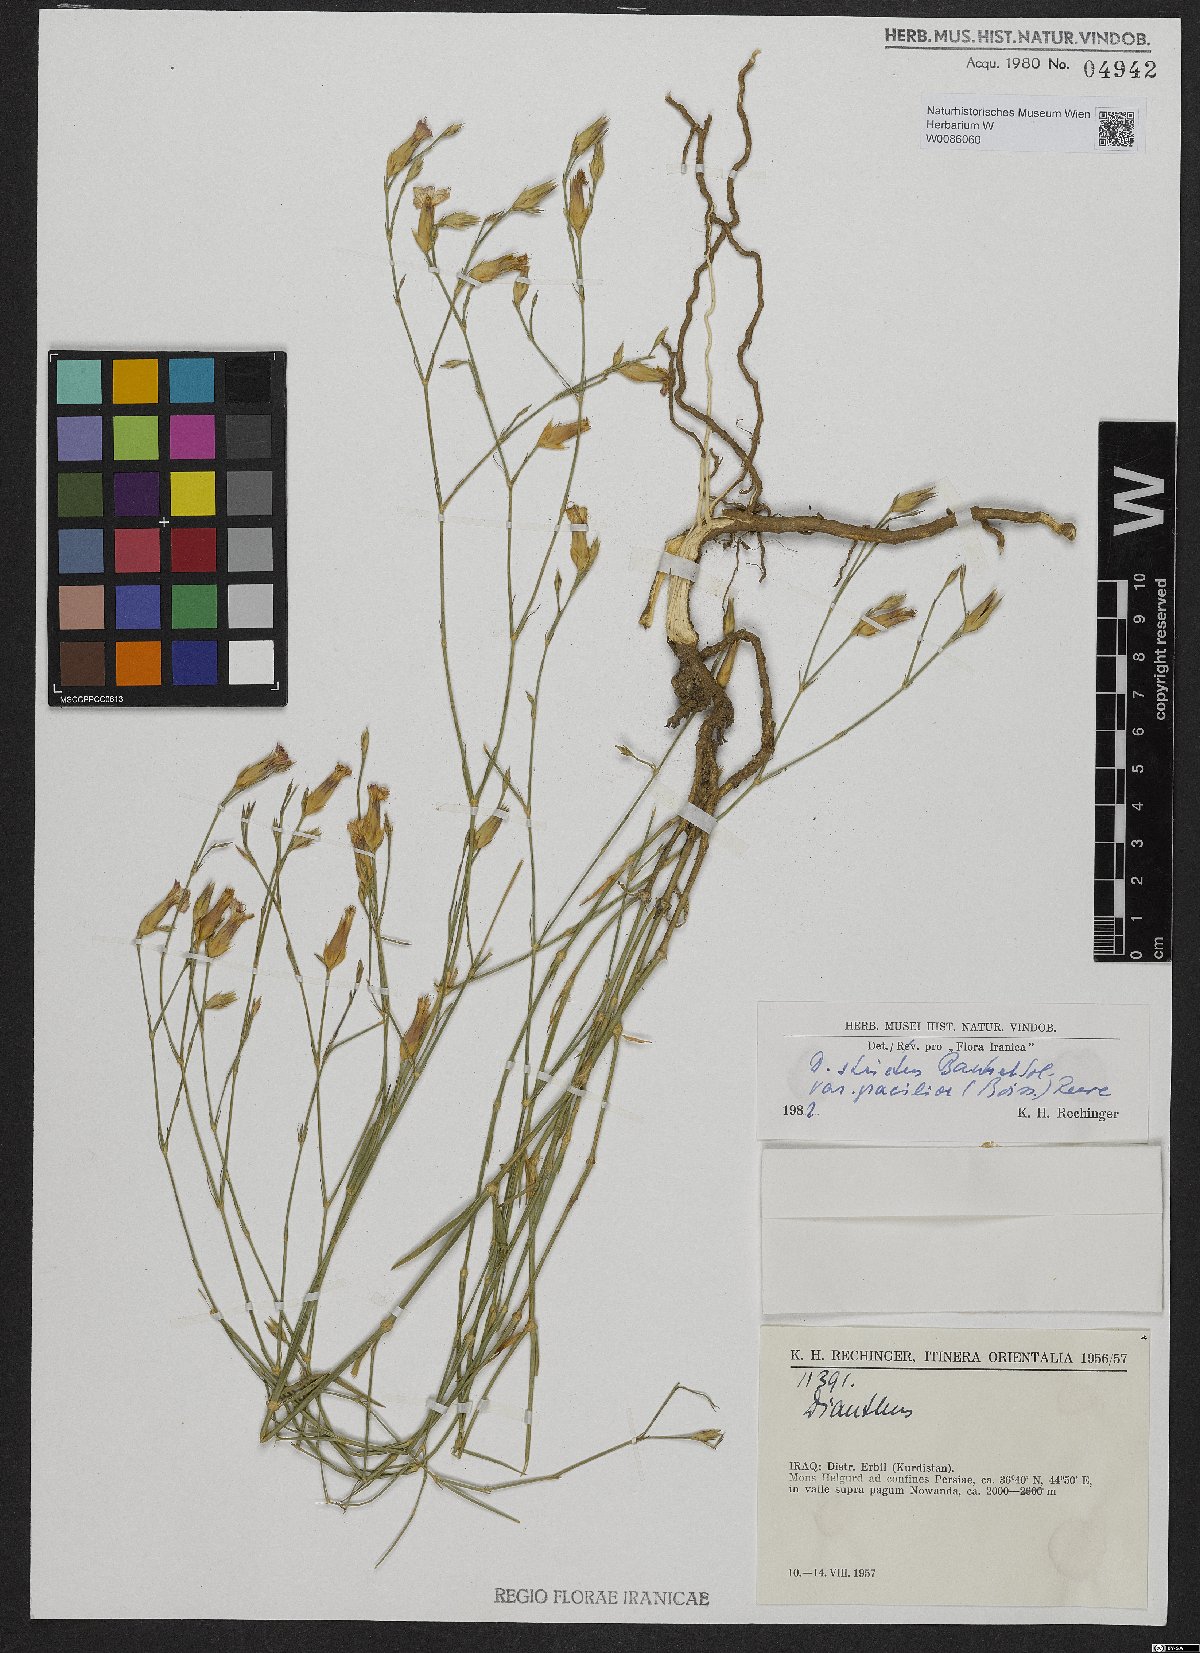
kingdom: Plantae
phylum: Tracheophyta
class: Magnoliopsida
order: Caryophyllales
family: Caryophyllaceae
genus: Dianthus
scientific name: Dianthus strictus
